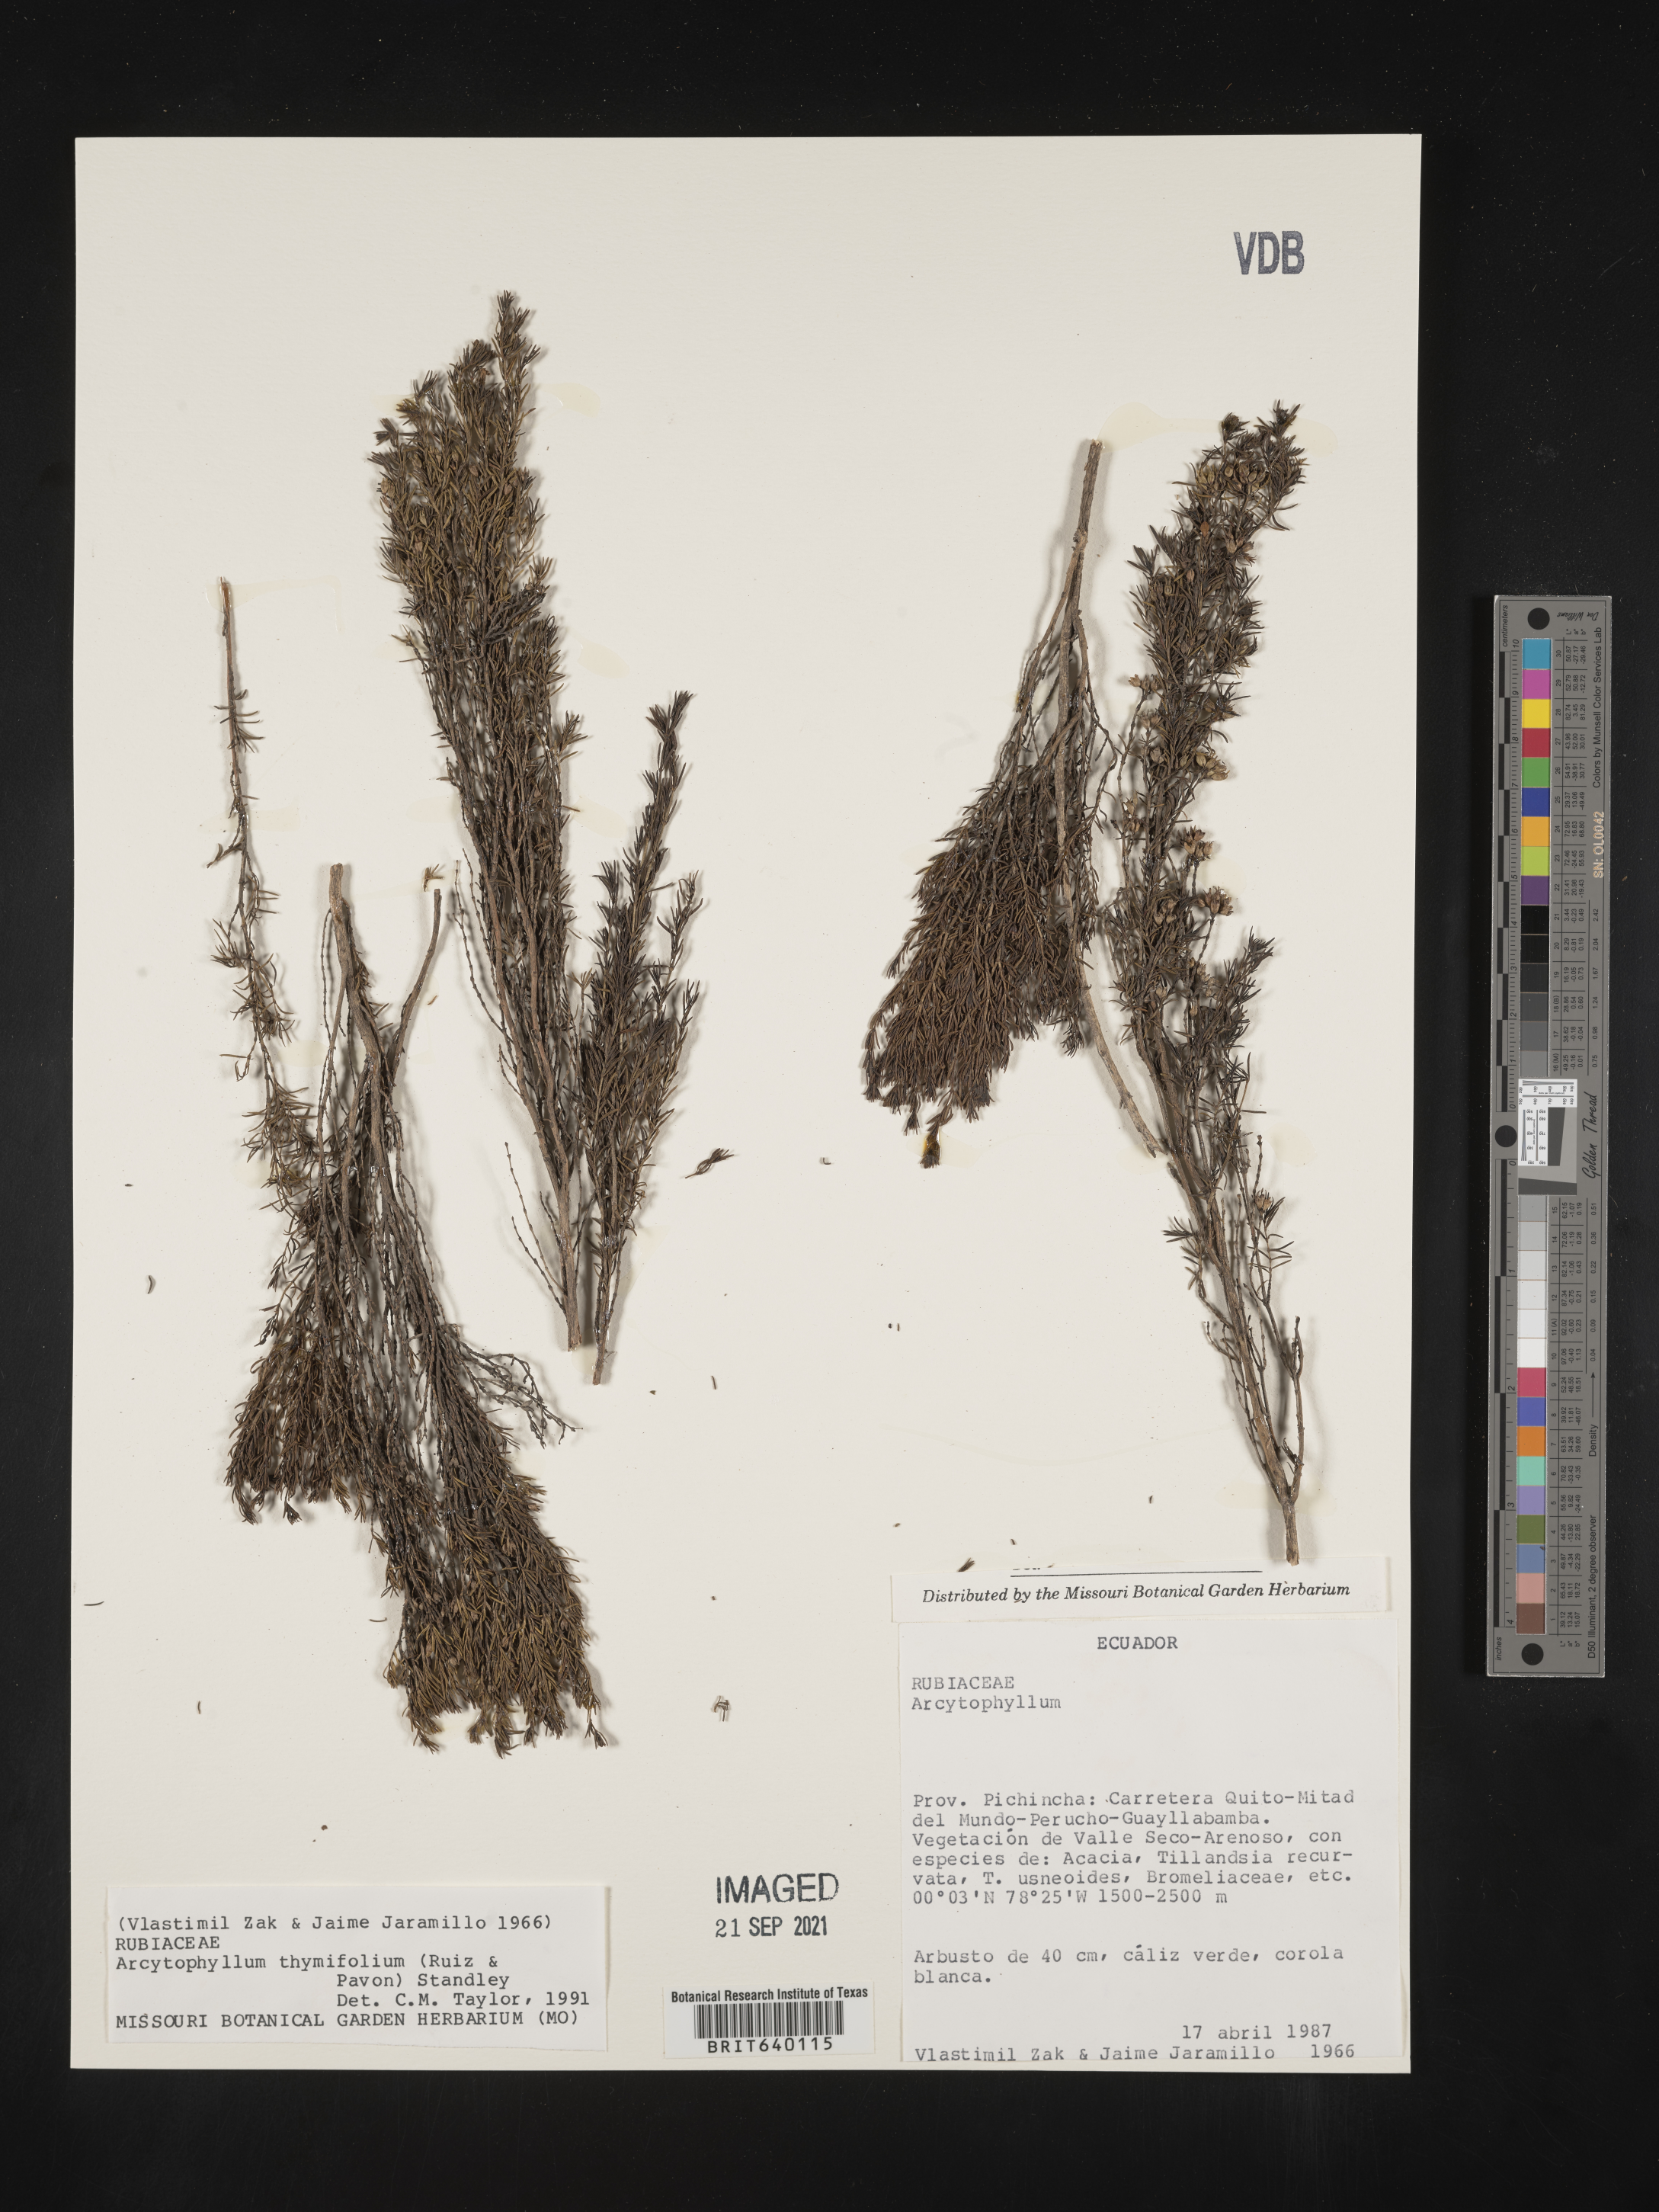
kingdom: Plantae
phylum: Tracheophyta
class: Magnoliopsida
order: Gentianales
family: Rubiaceae
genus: Arcytophyllum
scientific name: Arcytophyllum
